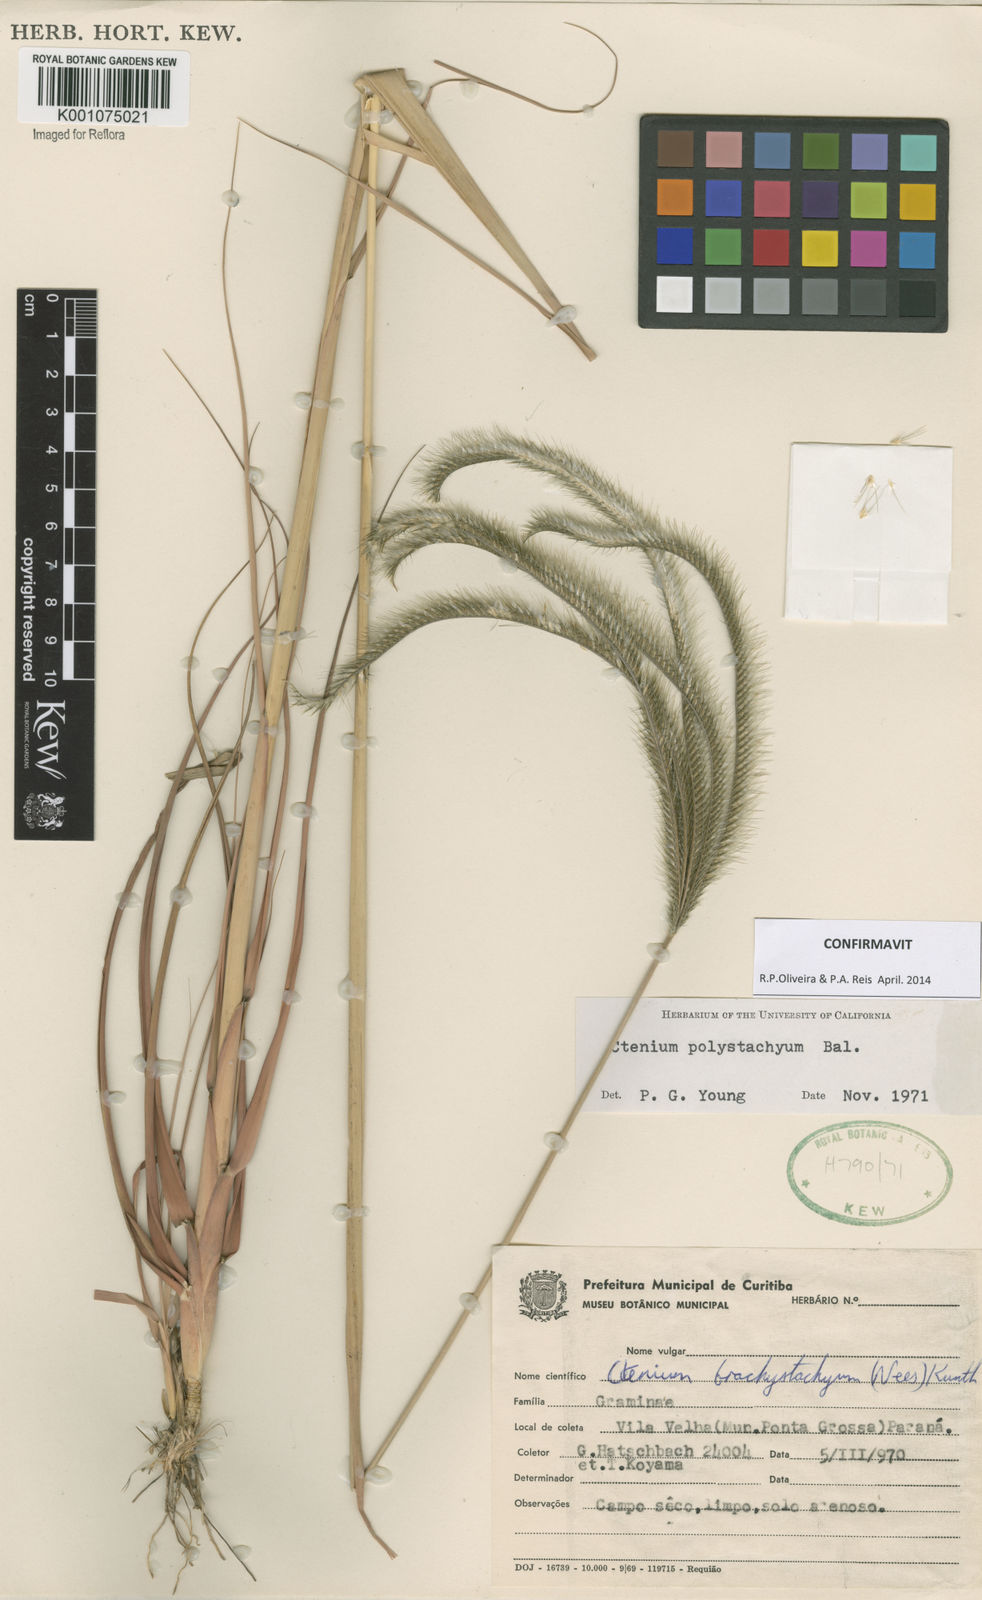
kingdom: Plantae
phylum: Tracheophyta
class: Liliopsida
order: Poales
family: Poaceae
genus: Ctenium
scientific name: Ctenium polystachyum
